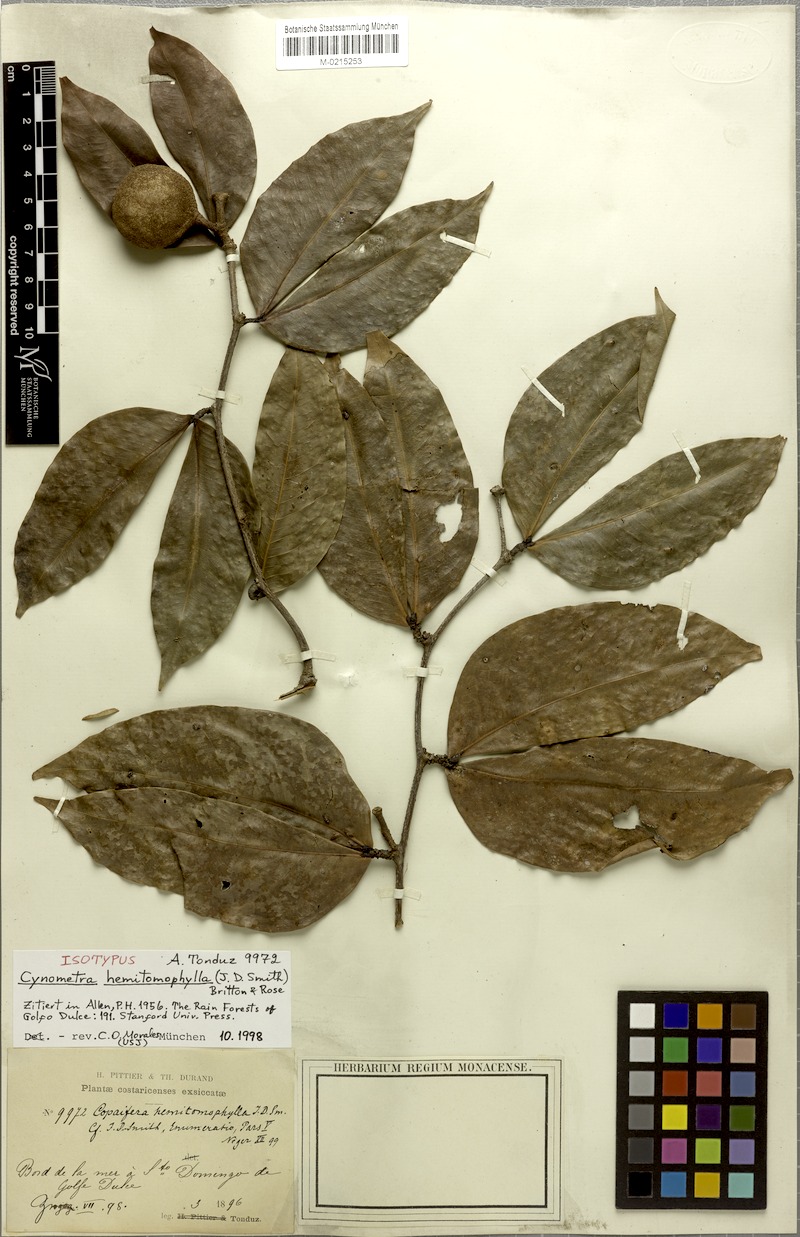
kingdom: Plantae
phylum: Tracheophyta
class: Magnoliopsida
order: Fabales
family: Fabaceae
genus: Cynometra
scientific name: Cynometra hemitomophylla
